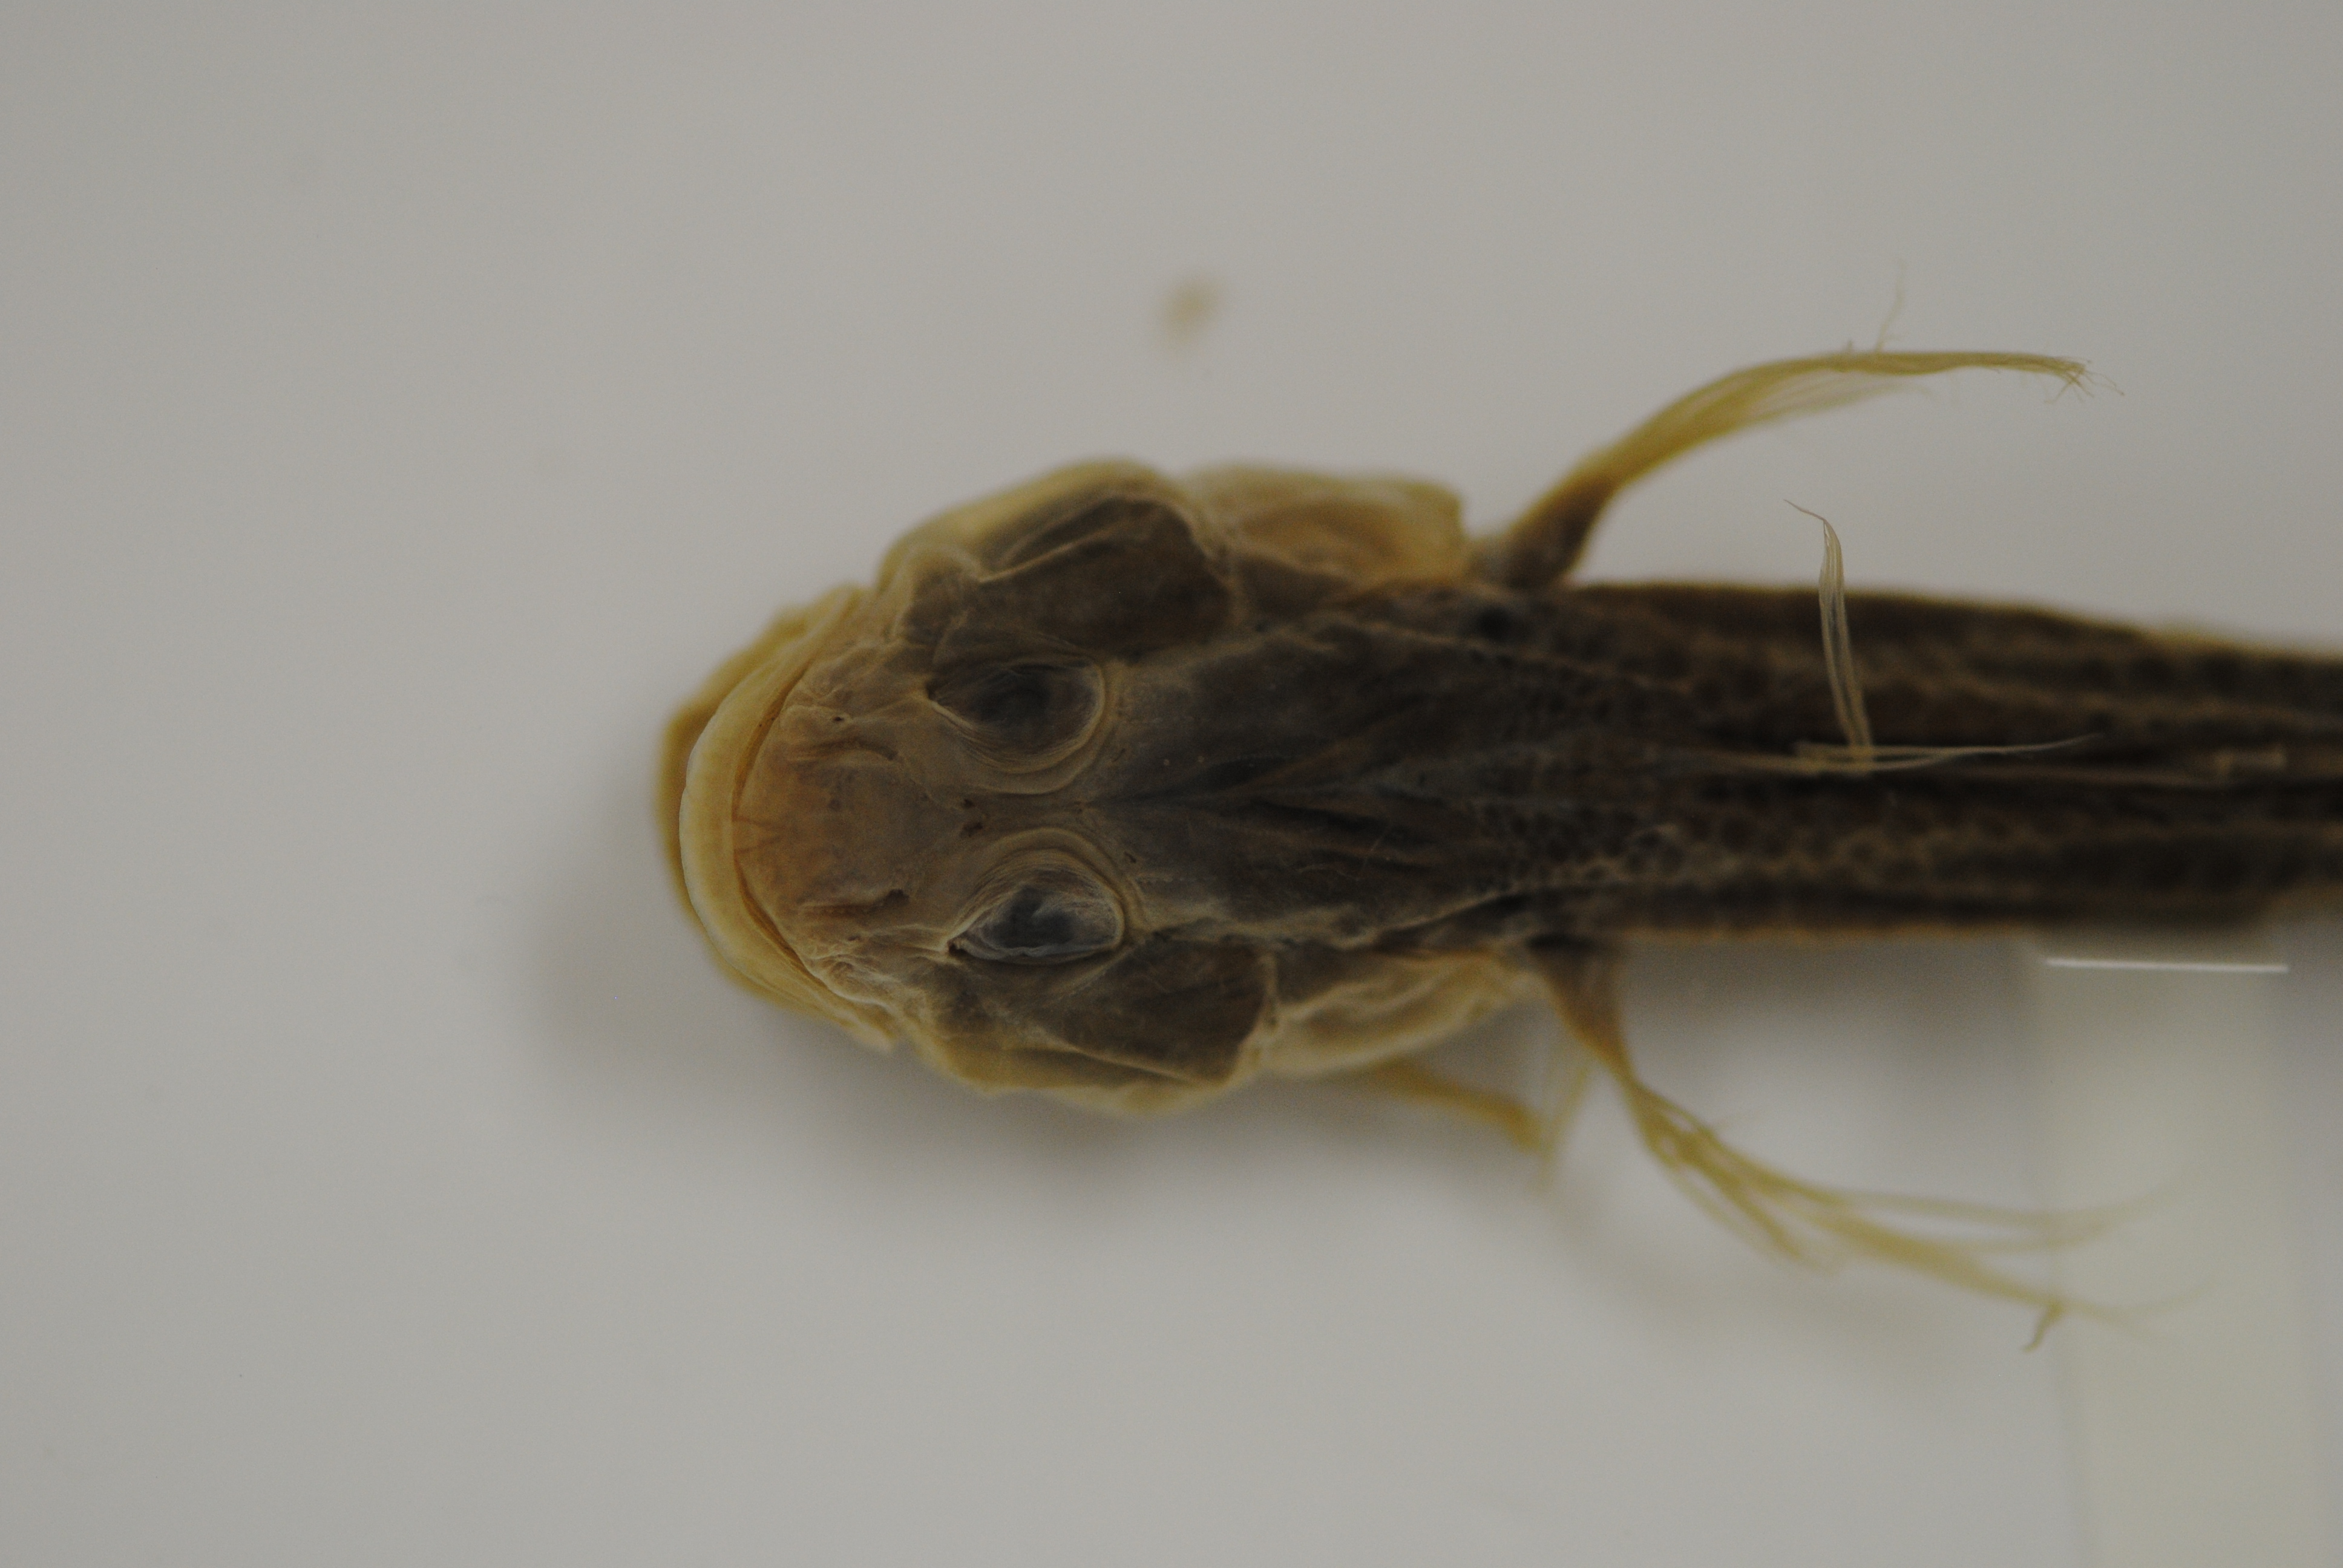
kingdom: Animalia
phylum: Chordata
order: Perciformes
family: Gobiidae
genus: Glossogobius
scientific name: Glossogobius callidus
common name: River goby
